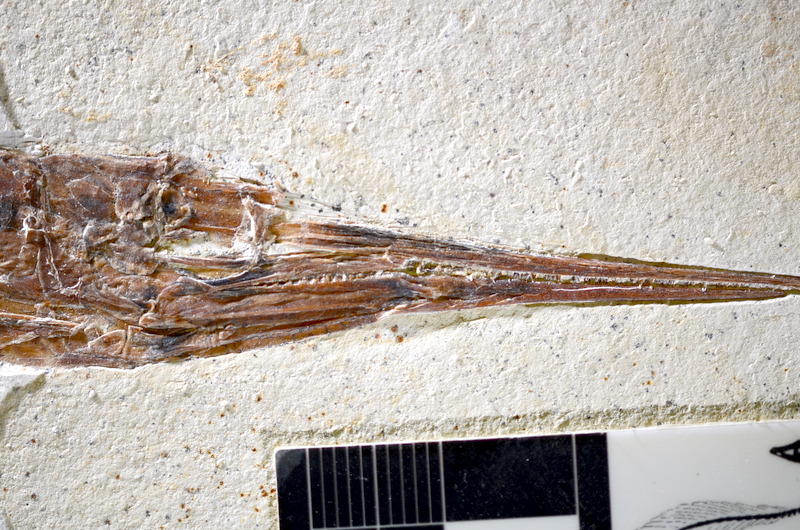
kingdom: Animalia
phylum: Chordata
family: Aspidorhynchidae
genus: Belonostomus
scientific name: Belonostomus kochii
